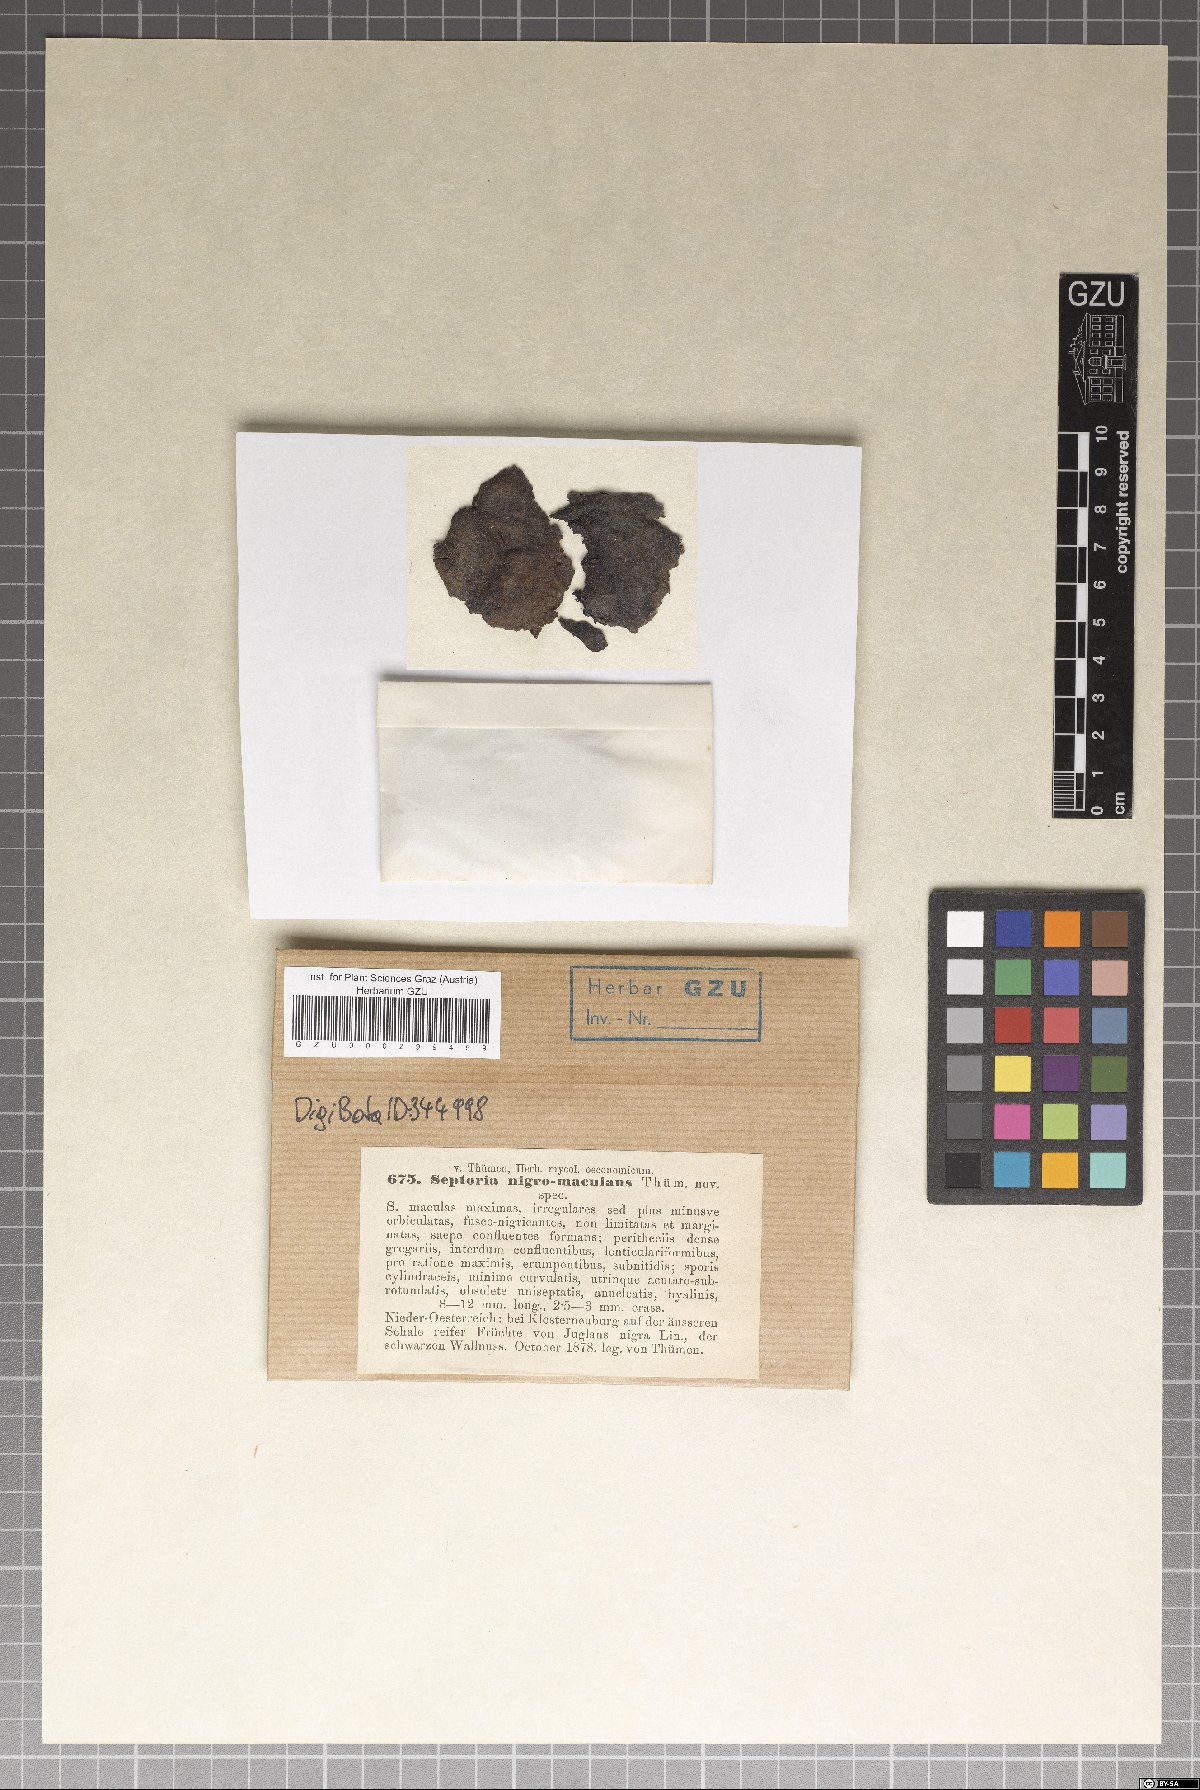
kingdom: Fungi
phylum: Ascomycota
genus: Cytosporina
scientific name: Cytosporina nigromaculans
